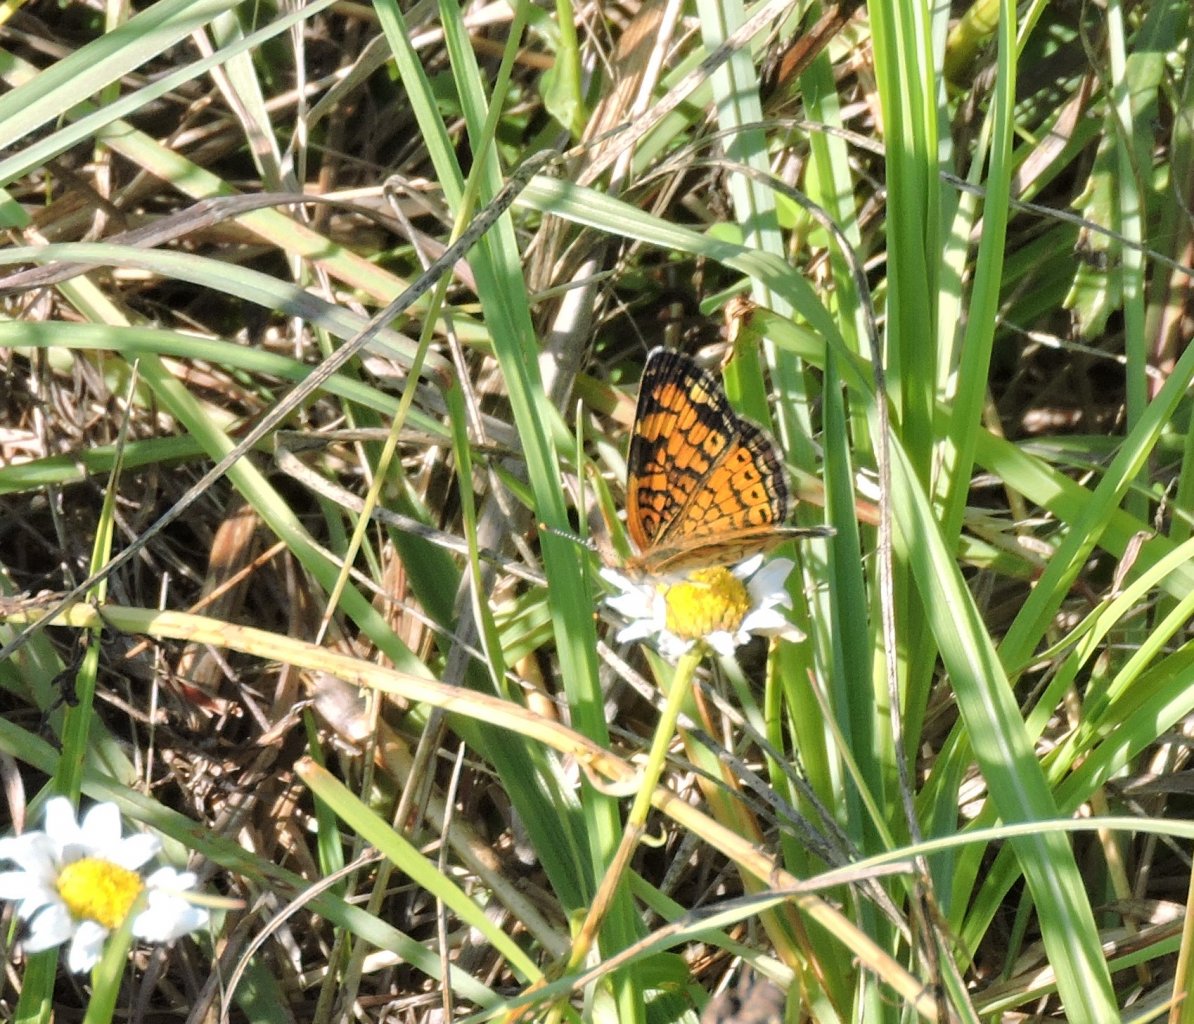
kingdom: Animalia
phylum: Arthropoda
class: Insecta
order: Lepidoptera
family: Nymphalidae
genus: Phyciodes
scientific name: Phyciodes tharos
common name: Pearl Crescent
